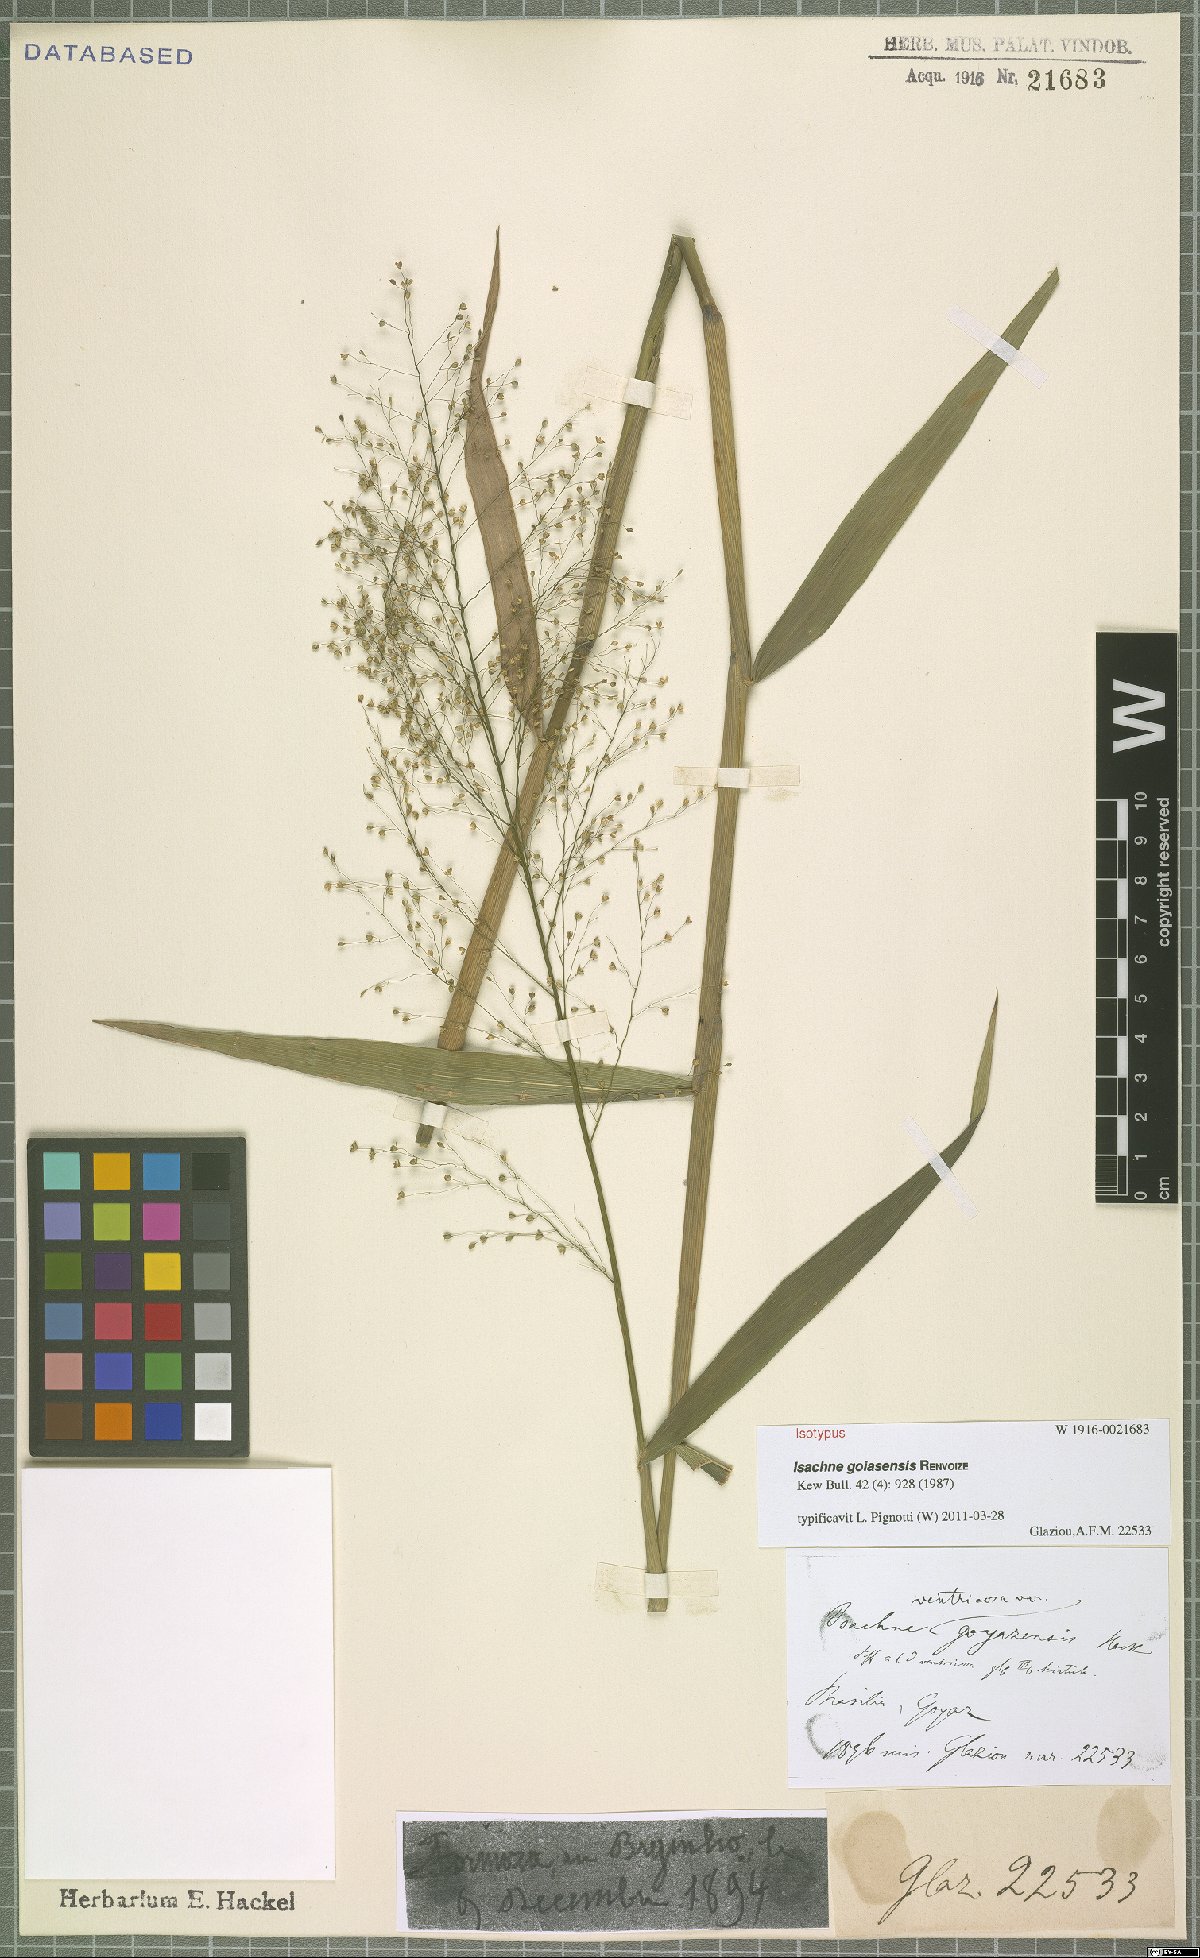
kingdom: Plantae
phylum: Tracheophyta
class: Liliopsida
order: Poales
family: Poaceae
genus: Isachne
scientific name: Isachne goiasensis
